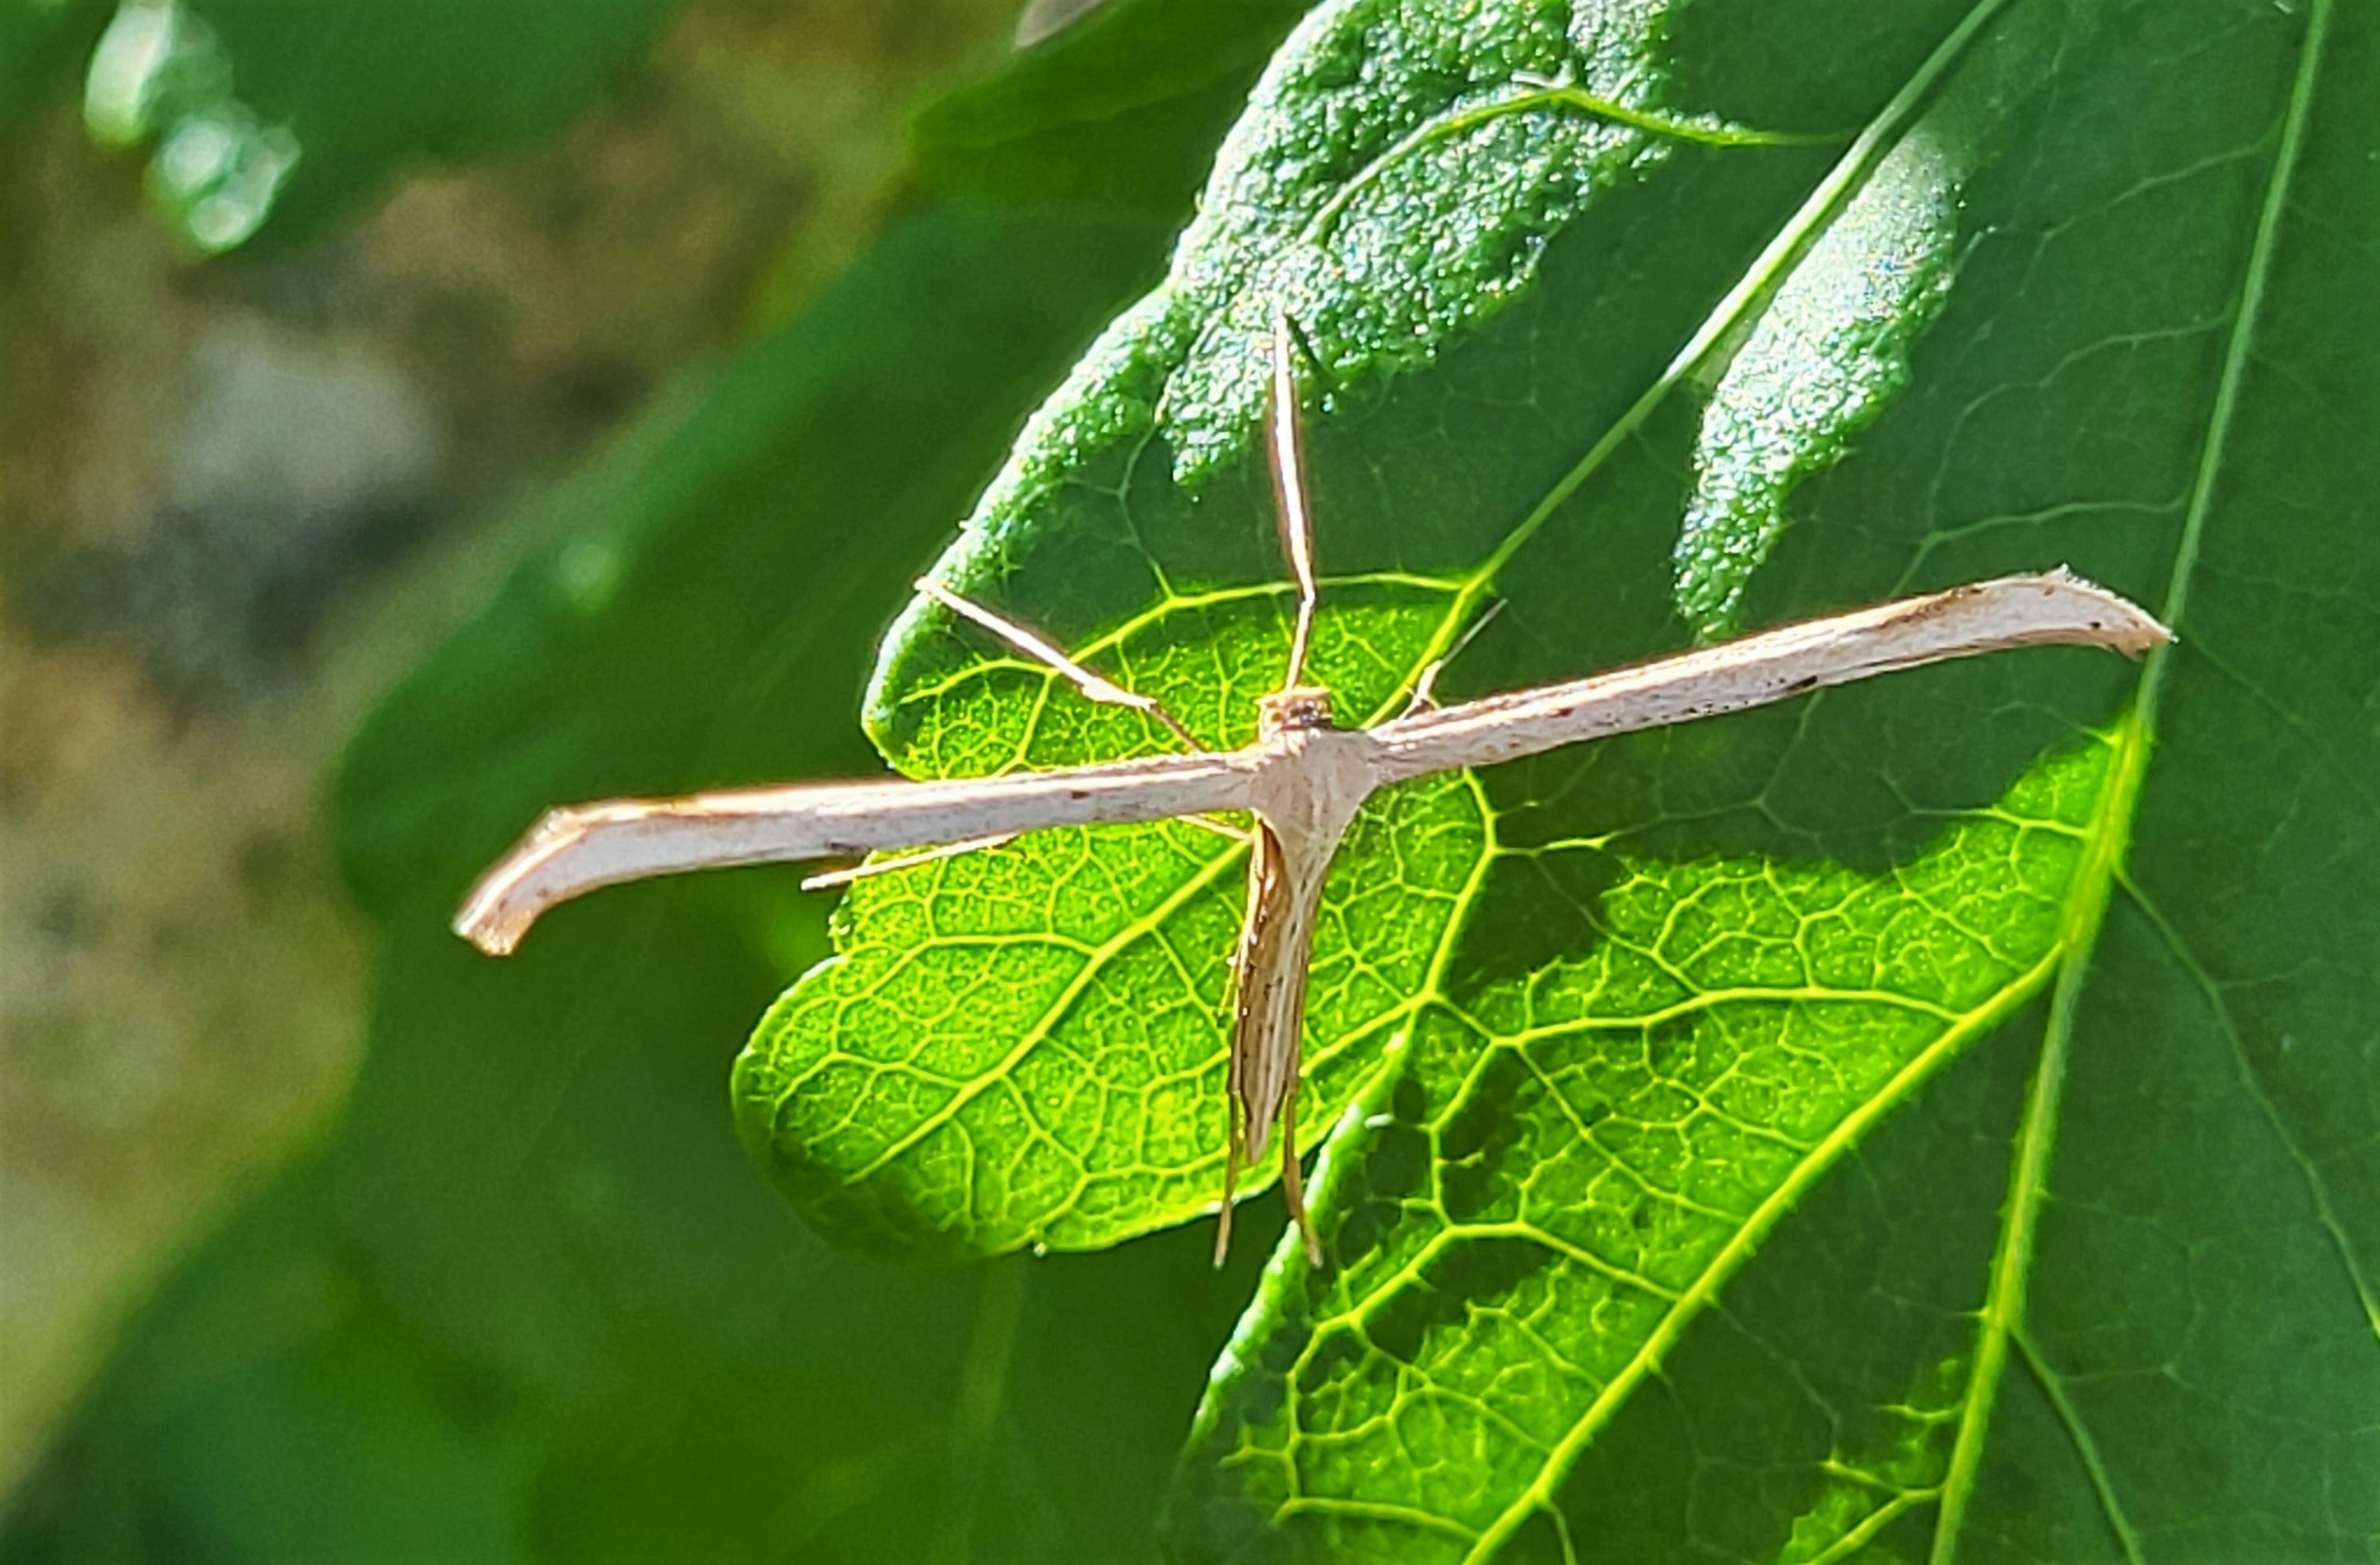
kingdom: Animalia
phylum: Arthropoda
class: Insecta
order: Lepidoptera
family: Pterophoridae
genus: Emmelina
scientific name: Emmelina monodactyla
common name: Snerlefjermøl
